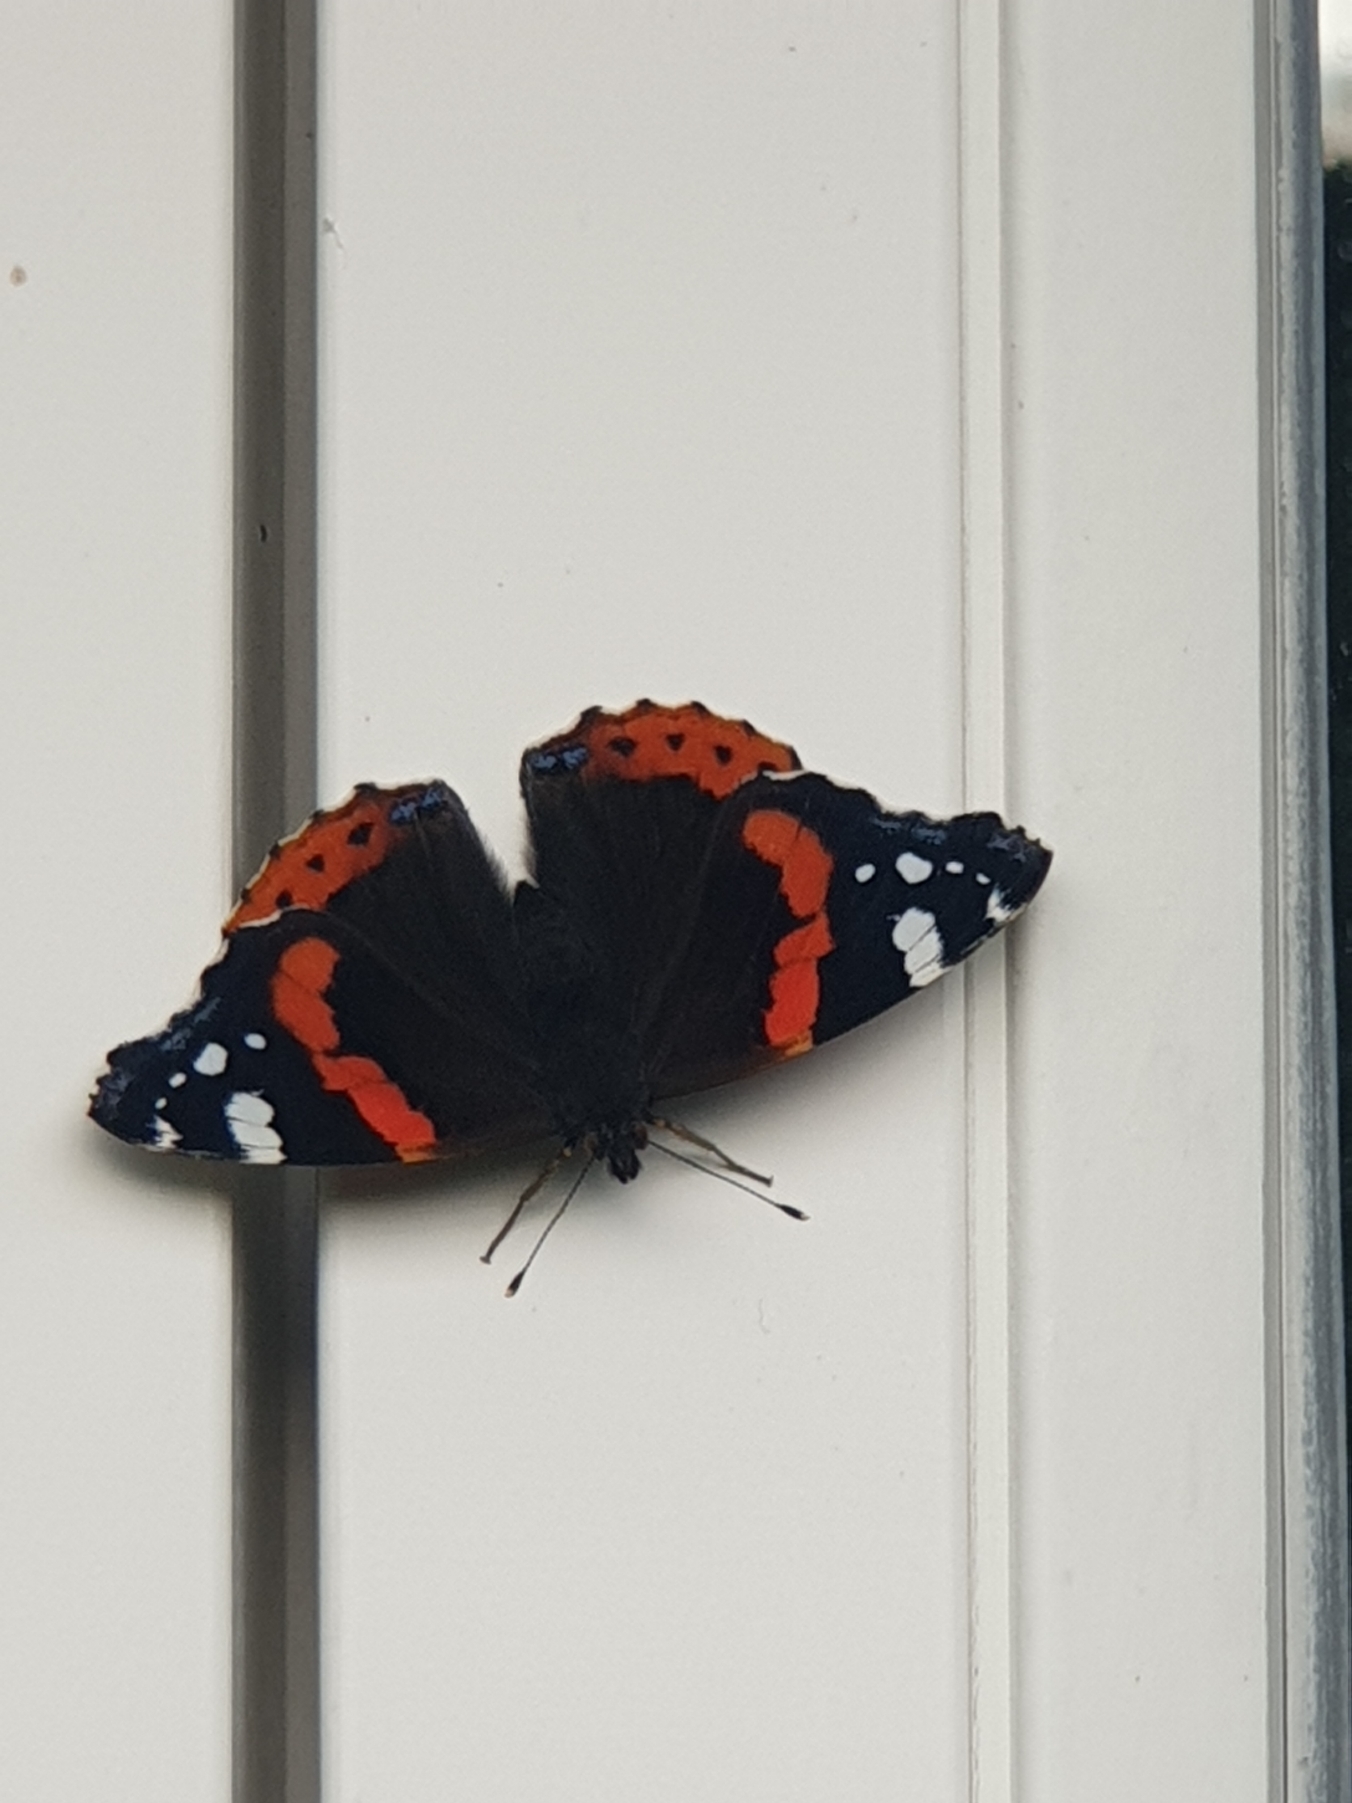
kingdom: Animalia
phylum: Arthropoda
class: Insecta
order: Lepidoptera
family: Nymphalidae
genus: Vanessa
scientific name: Vanessa atalanta
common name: Admiral
